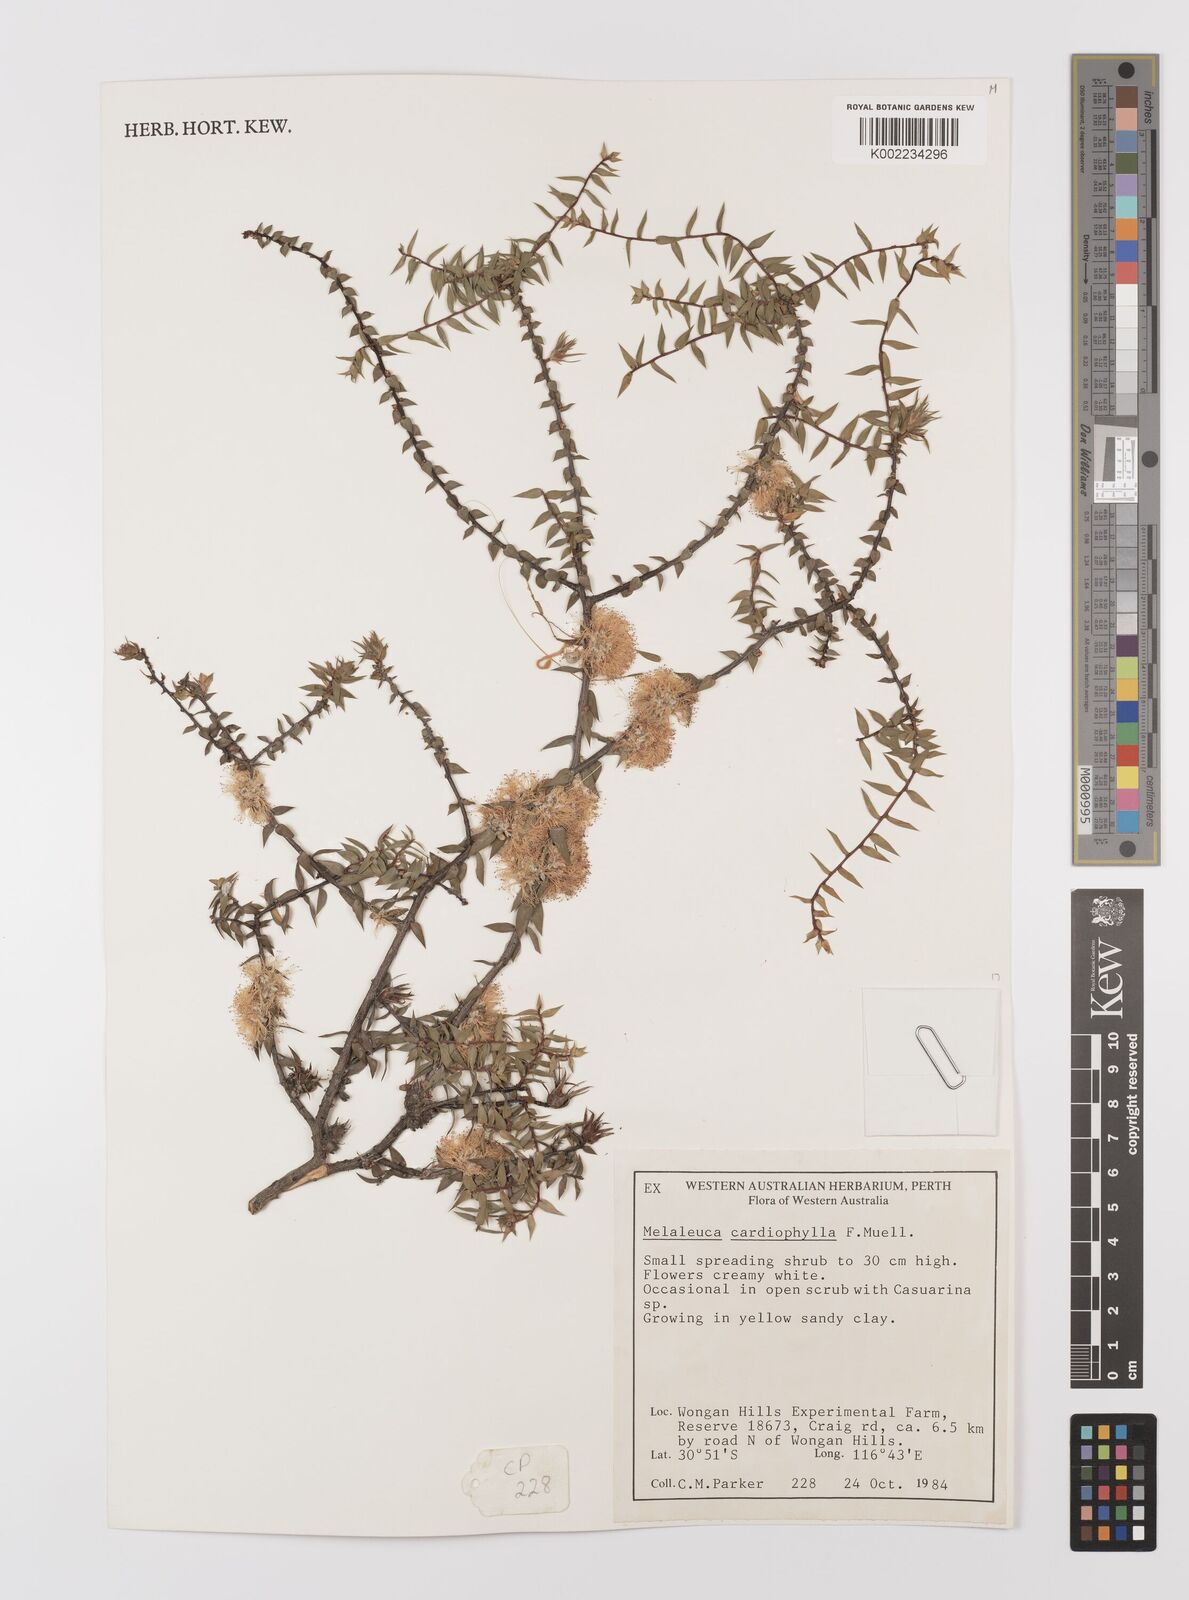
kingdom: Plantae
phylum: Tracheophyta
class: Magnoliopsida
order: Myrtales
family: Myrtaceae
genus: Melaleuca
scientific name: Melaleuca cardiophylla
